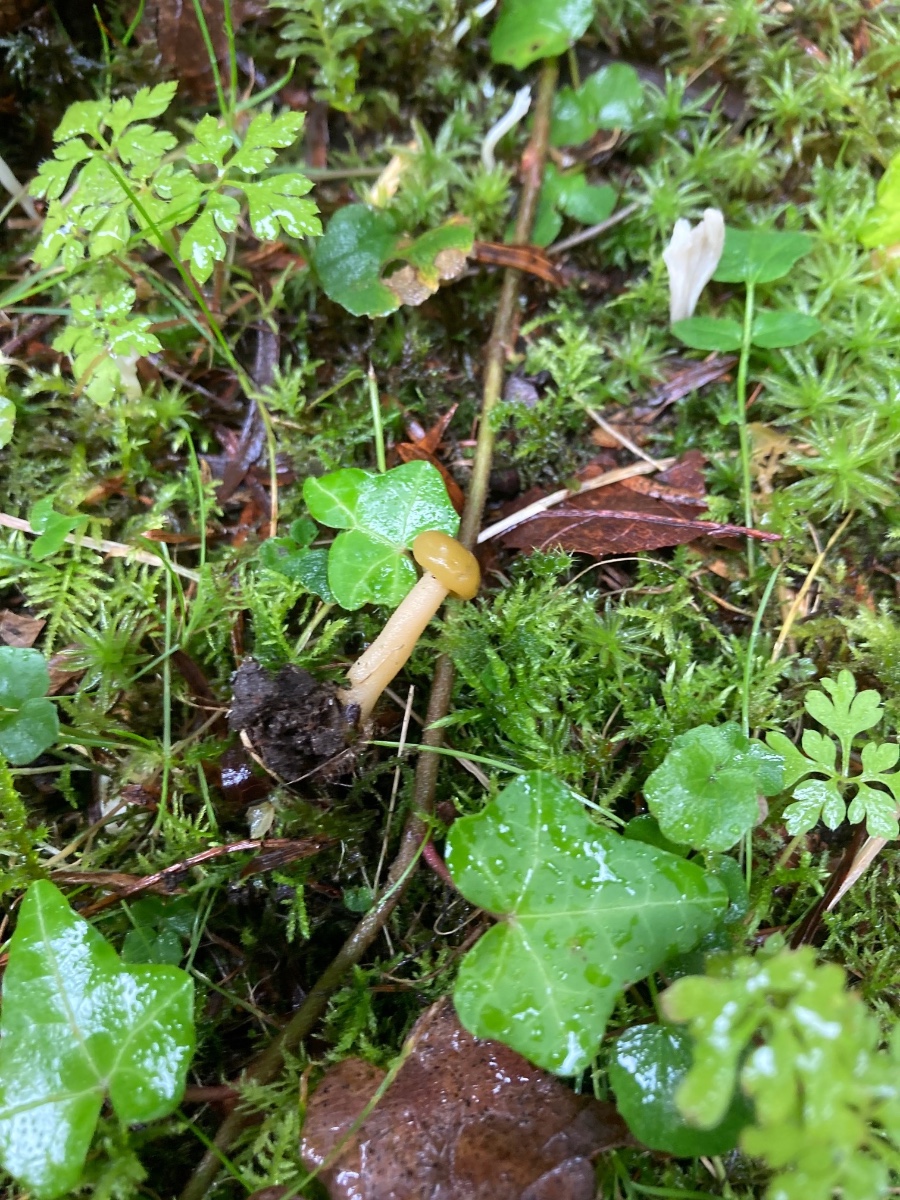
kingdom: Fungi
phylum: Ascomycota
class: Leotiomycetes
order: Leotiales
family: Leotiaceae
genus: Leotia
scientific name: Leotia lubrica
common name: ravsvamp
